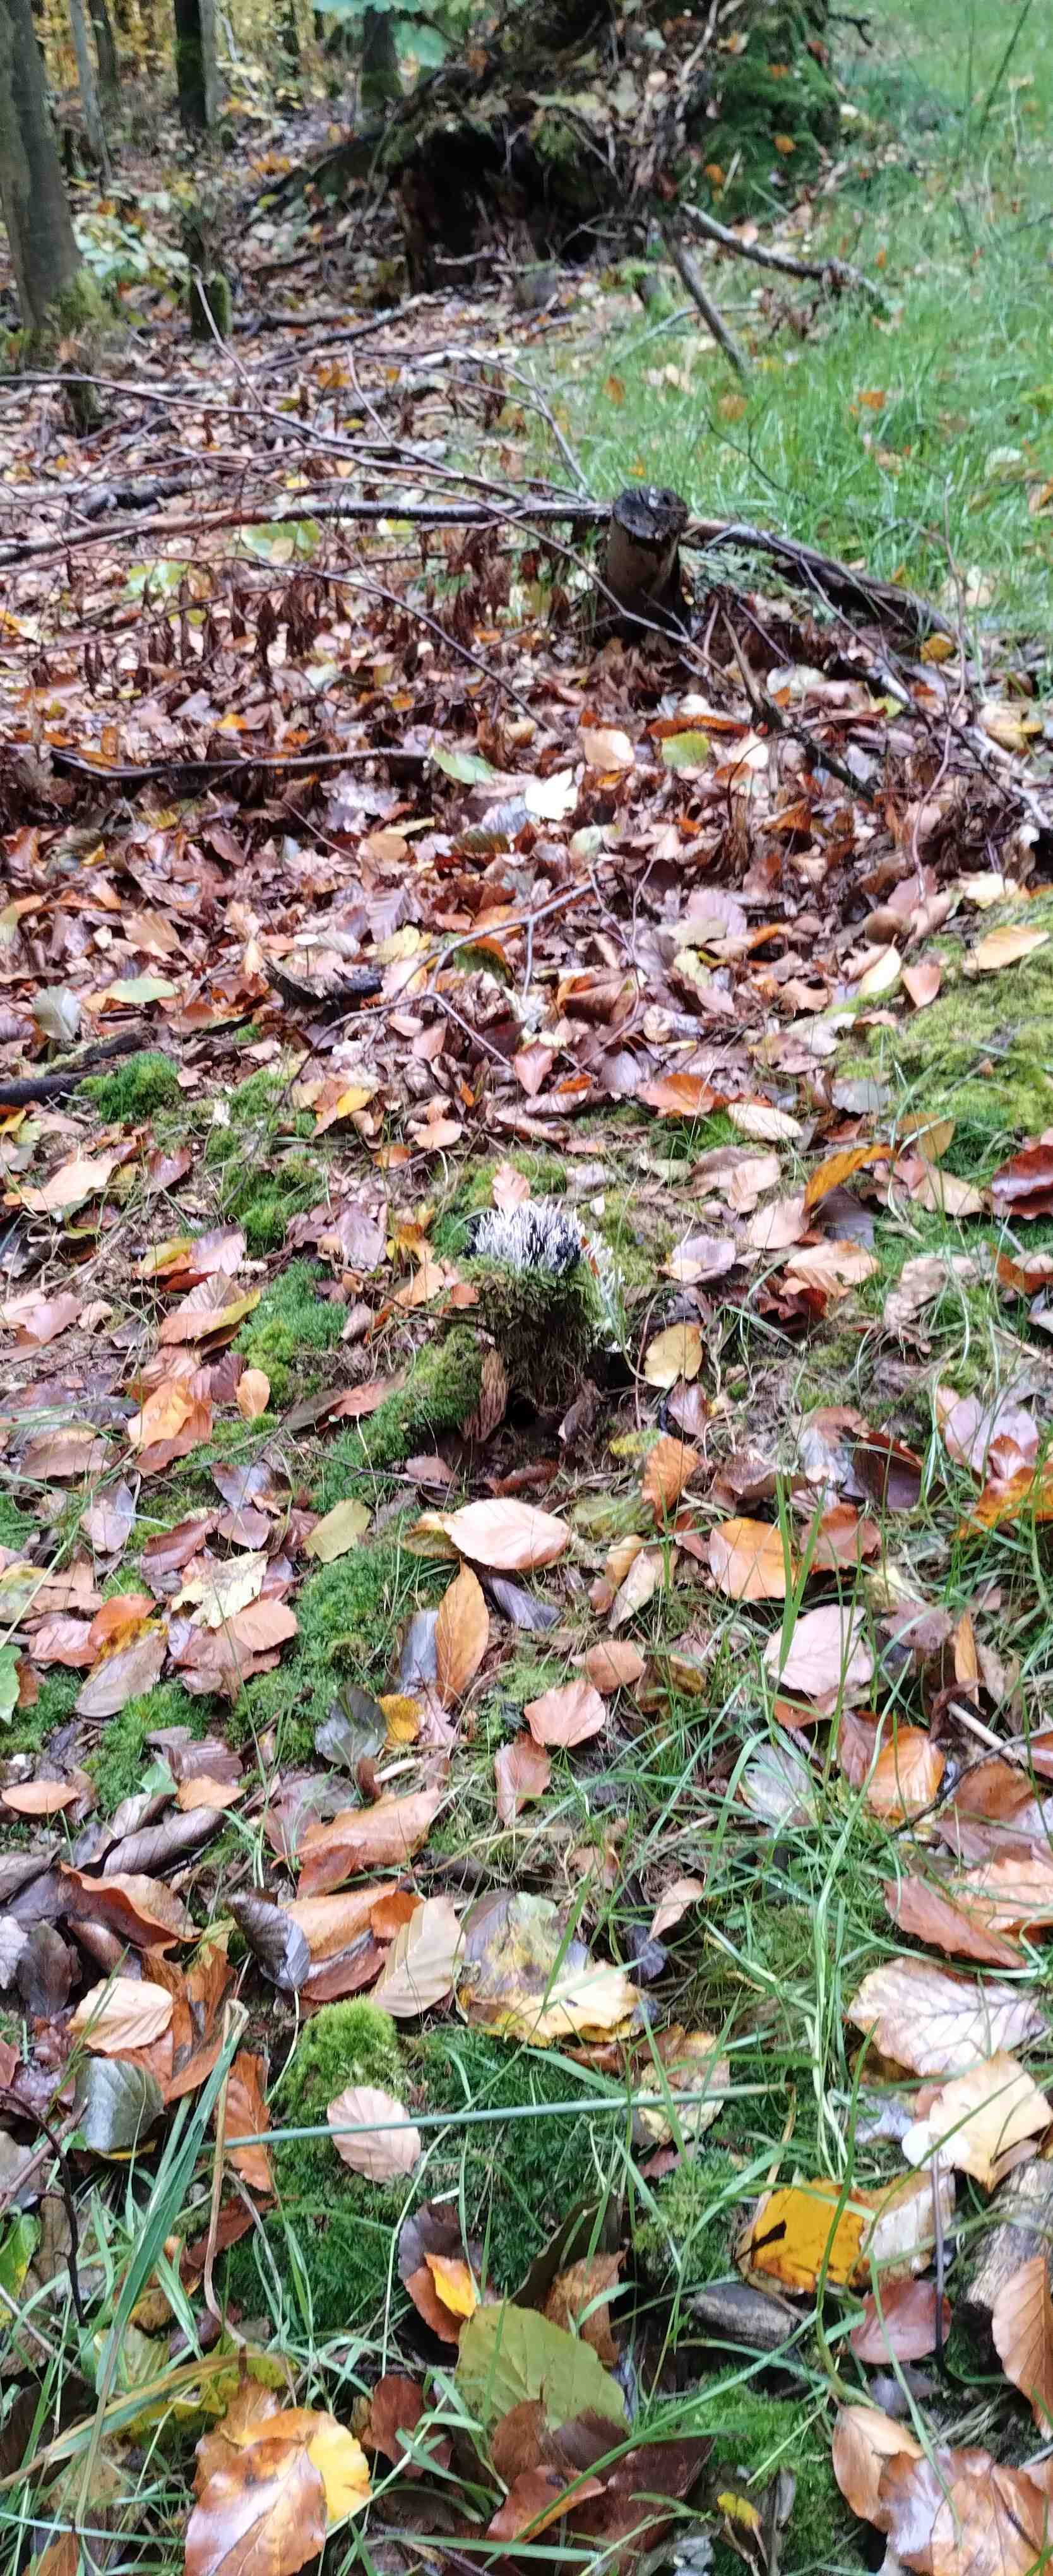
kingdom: Fungi
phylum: Ascomycota
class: Sordariomycetes
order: Xylariales
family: Xylariaceae
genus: Xylaria
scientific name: Xylaria hypoxylon
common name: grenet stødsvamp
